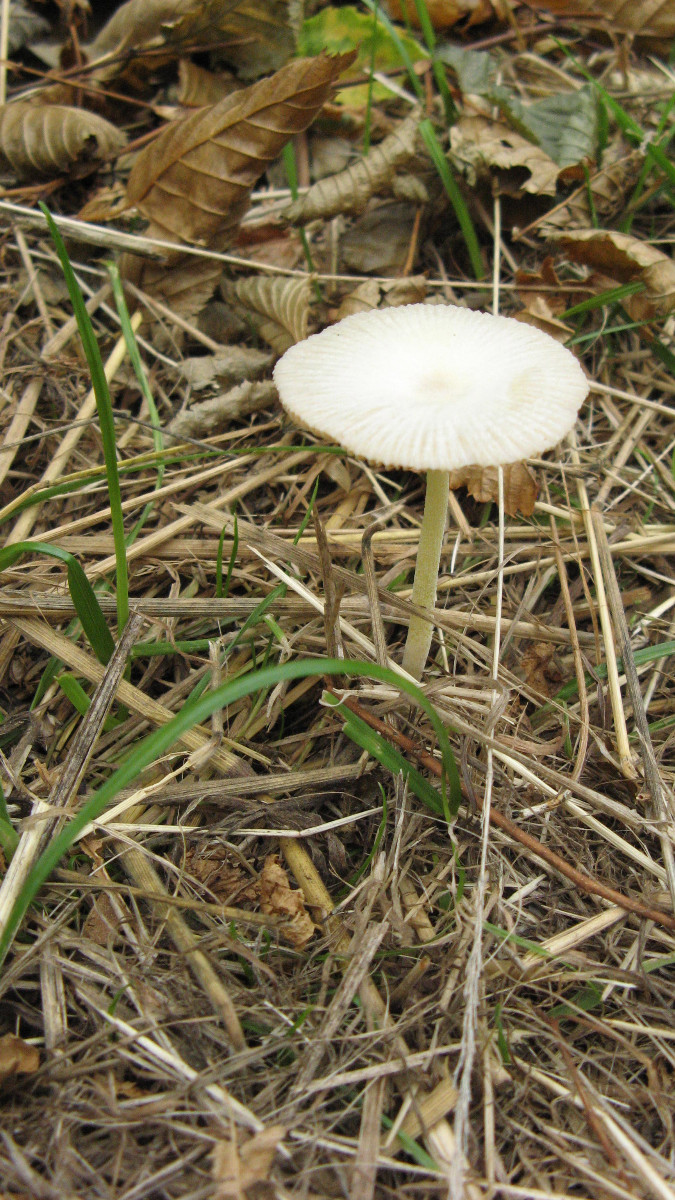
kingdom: Fungi
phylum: Basidiomycota
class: Agaricomycetes
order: Agaricales
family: Bolbitiaceae
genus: Bolbitius
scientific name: Bolbitius titubans
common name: almindelig gulhat
